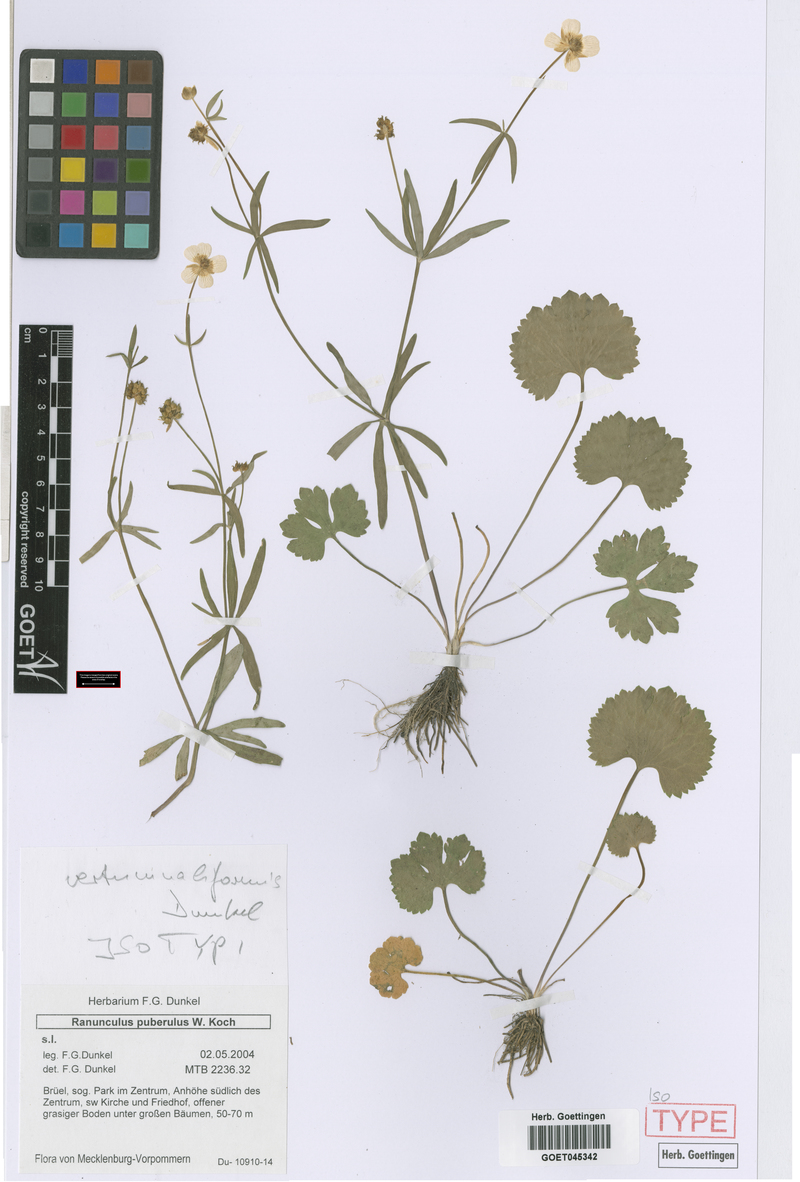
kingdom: Plantae
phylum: Tracheophyta
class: Magnoliopsida
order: Ranunculales
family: Ranunculaceae
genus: Ranunculus
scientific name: Ranunculus vertumnaliformis
